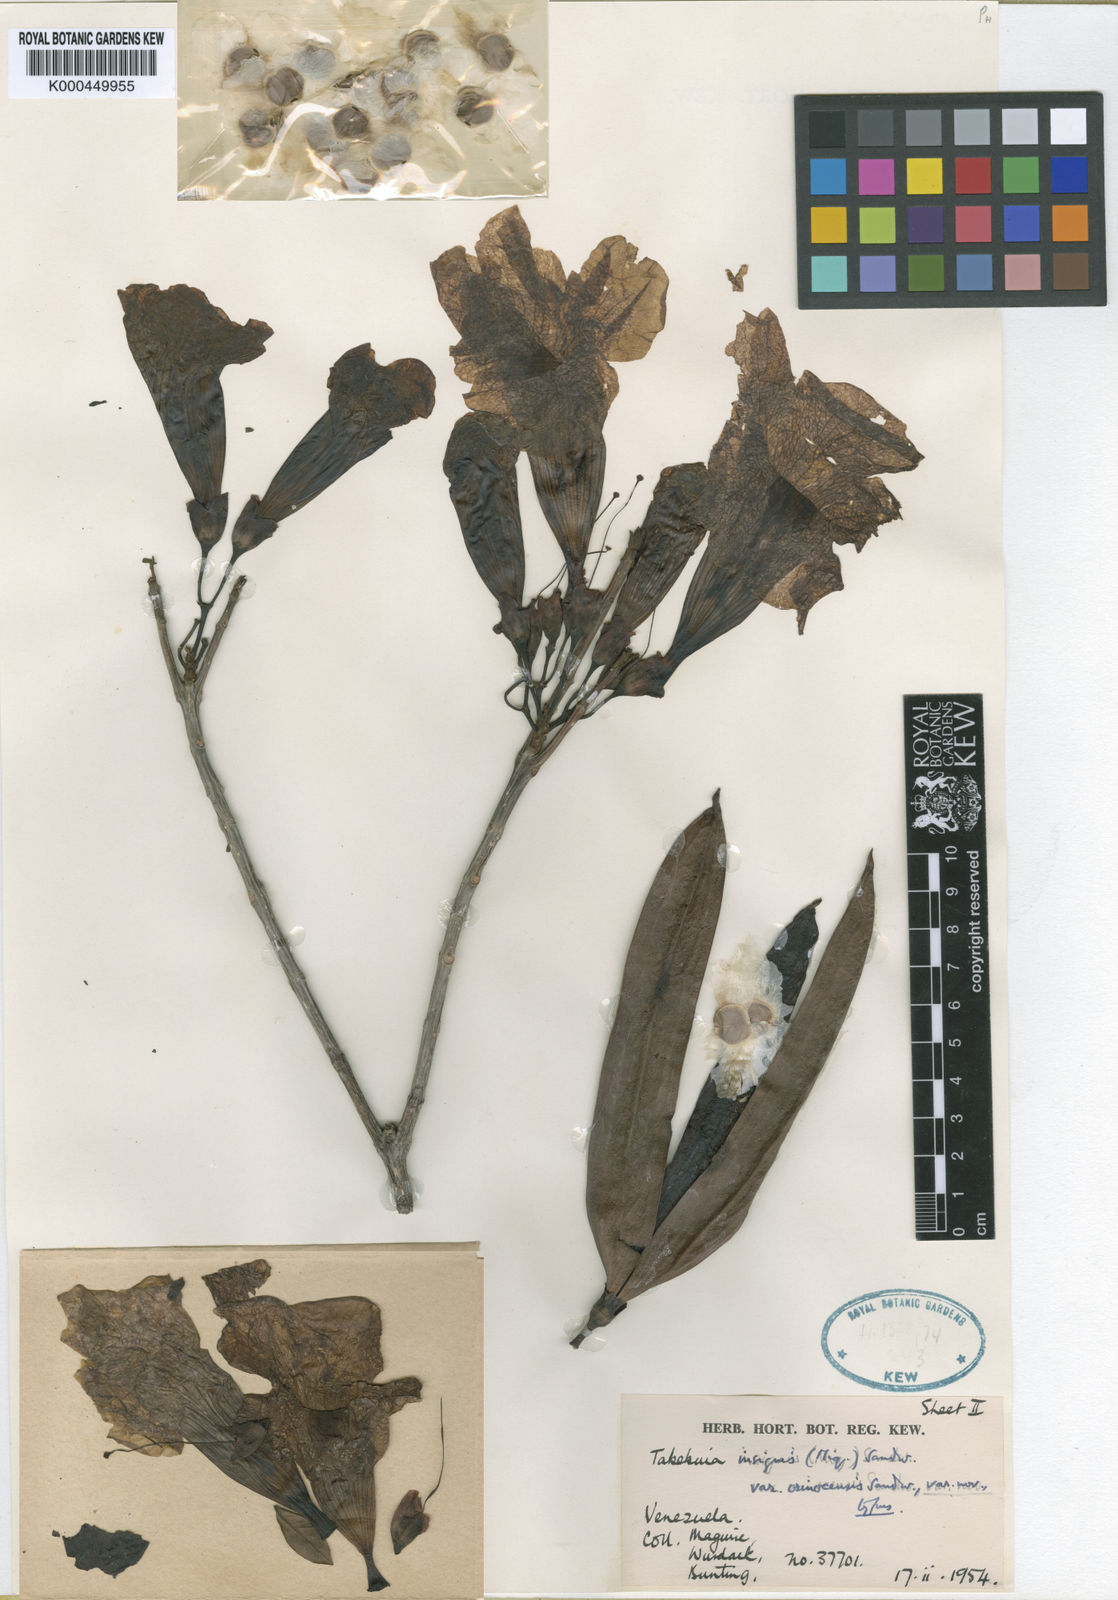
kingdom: Plantae
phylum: Tracheophyta
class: Magnoliopsida
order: Lamiales
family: Bignoniaceae
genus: Tabebuia
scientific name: Tabebuia orinocensis
